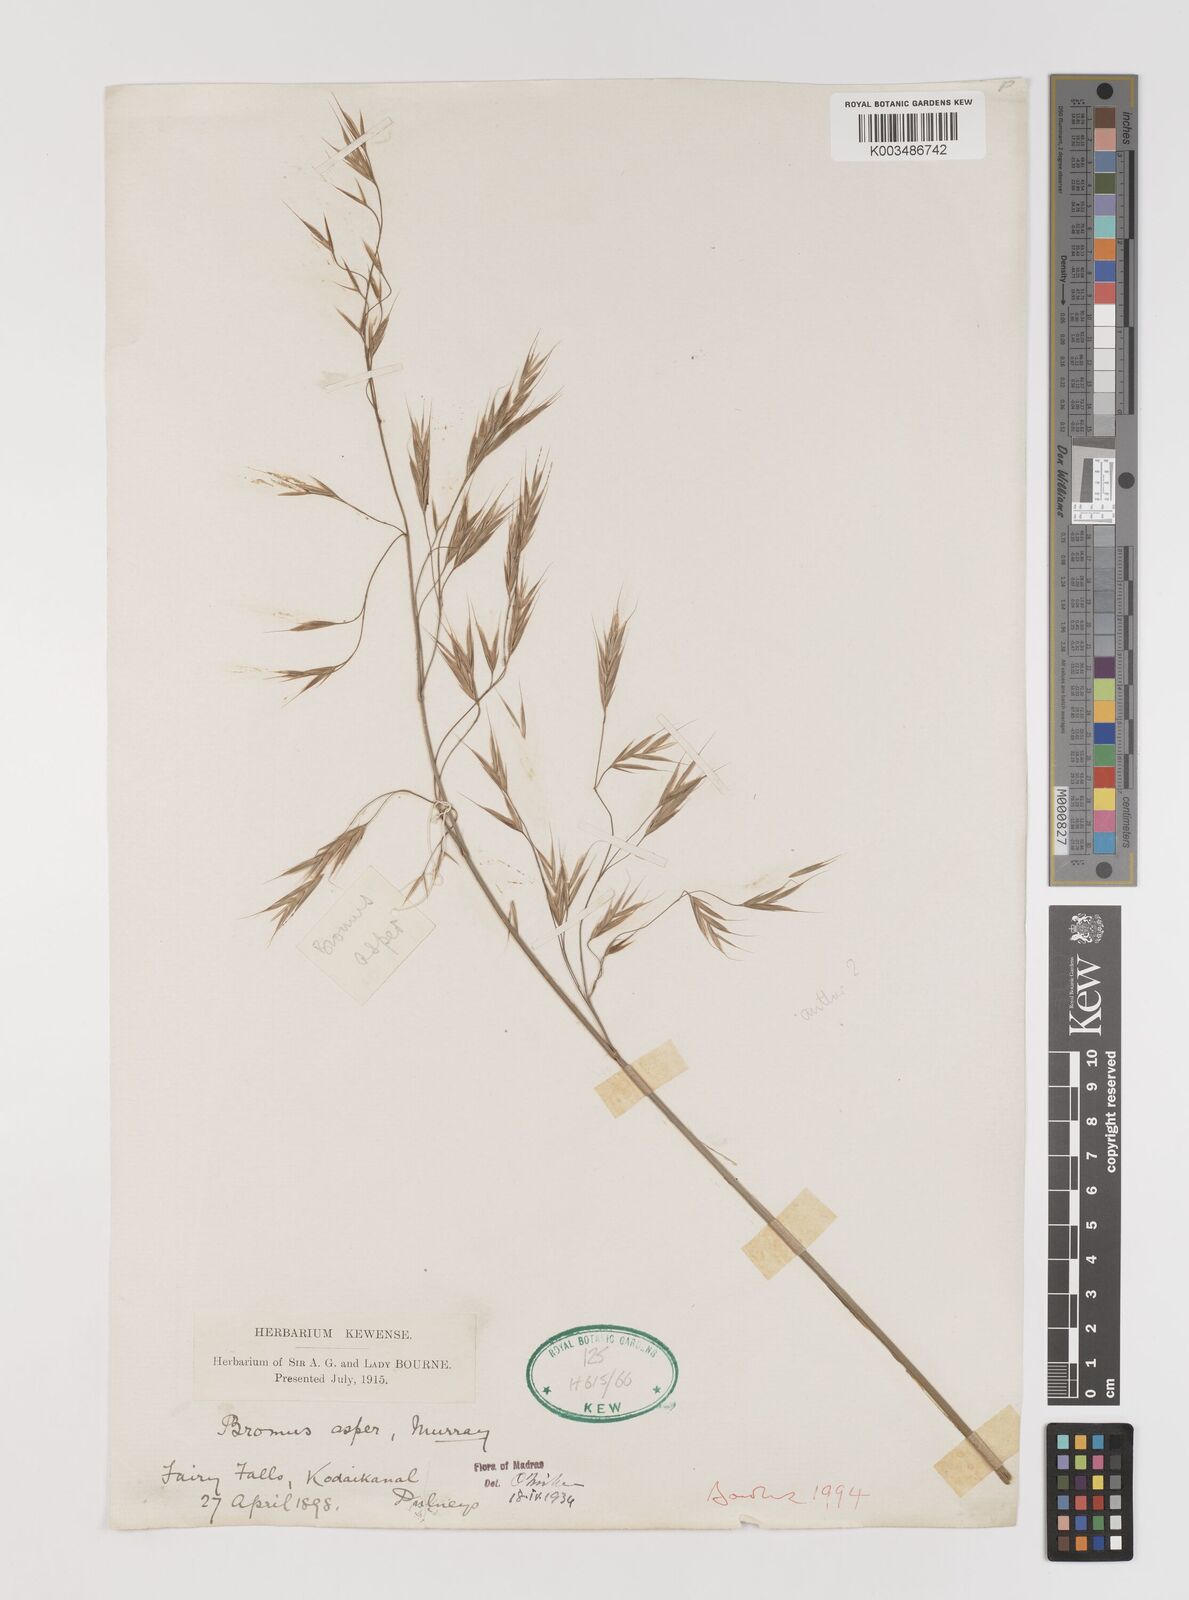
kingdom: Plantae
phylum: Tracheophyta
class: Liliopsida
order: Poales
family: Poaceae
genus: Brachypodium
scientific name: Brachypodium retusum
